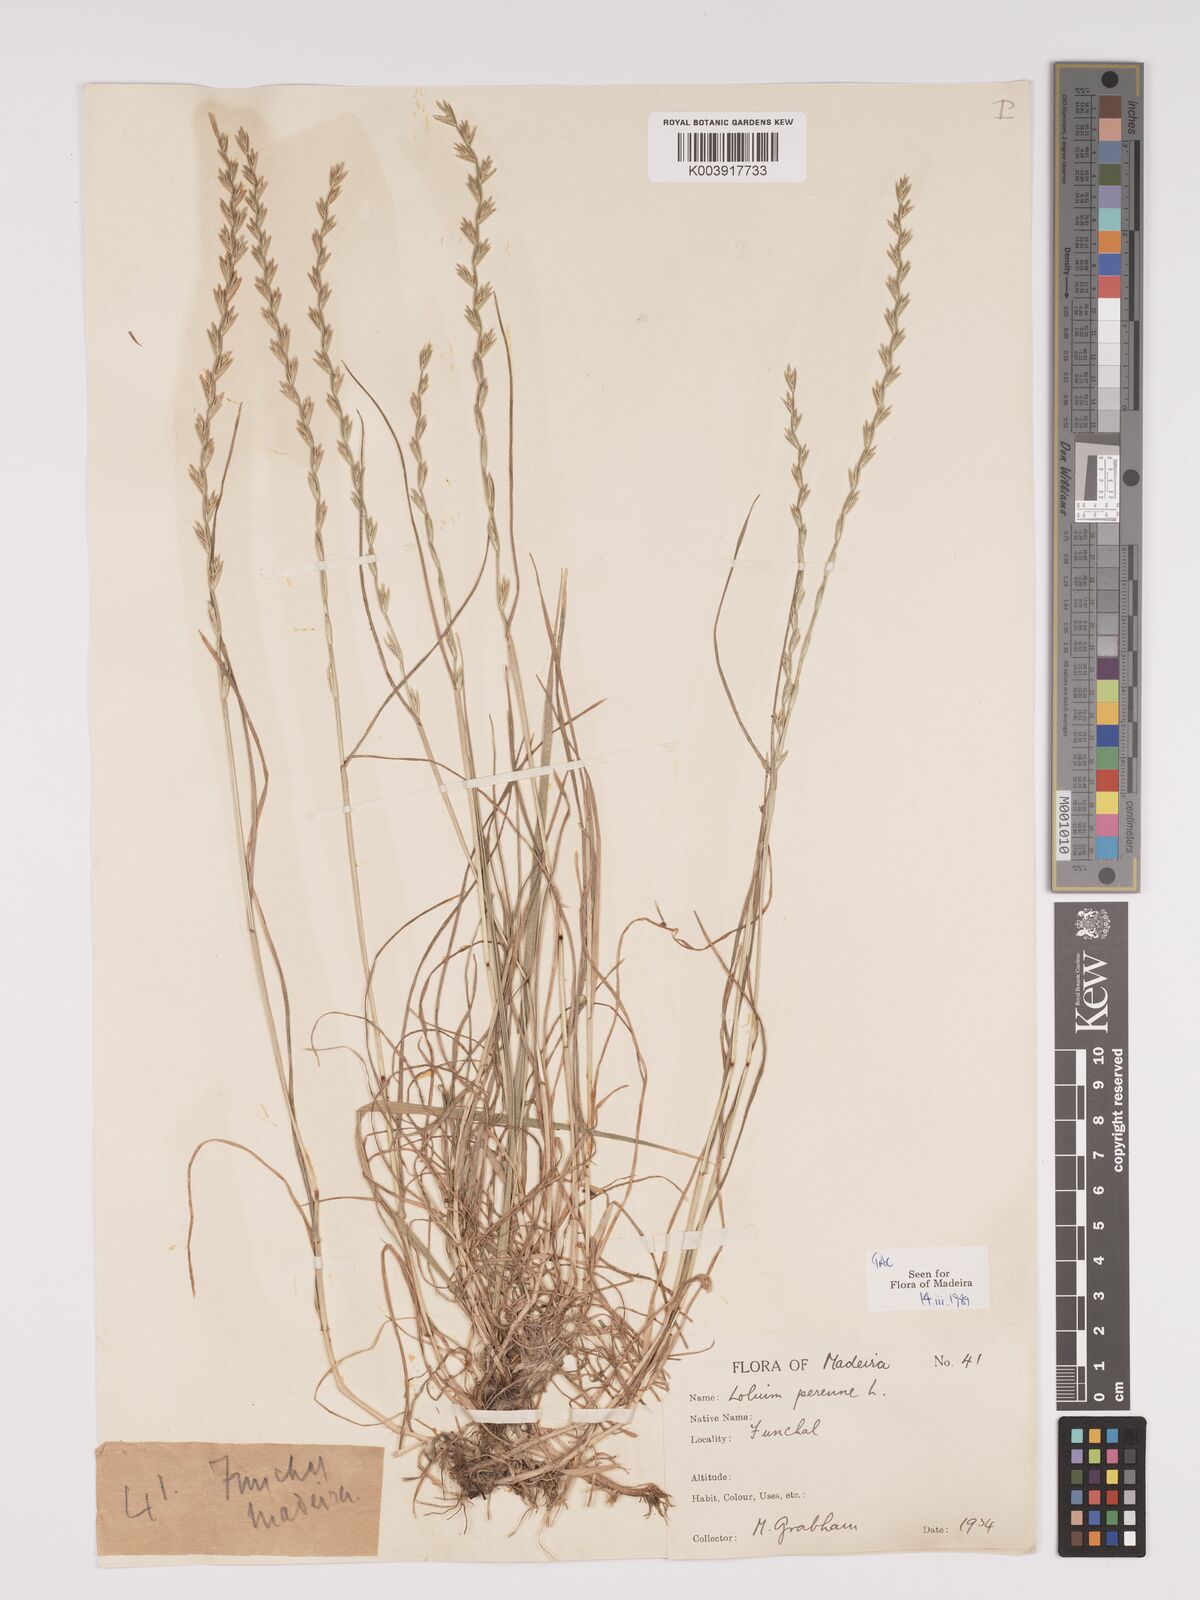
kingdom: Plantae
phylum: Tracheophyta
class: Liliopsida
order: Poales
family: Poaceae
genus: Lolium
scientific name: Lolium perenne
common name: Perennial ryegrass
